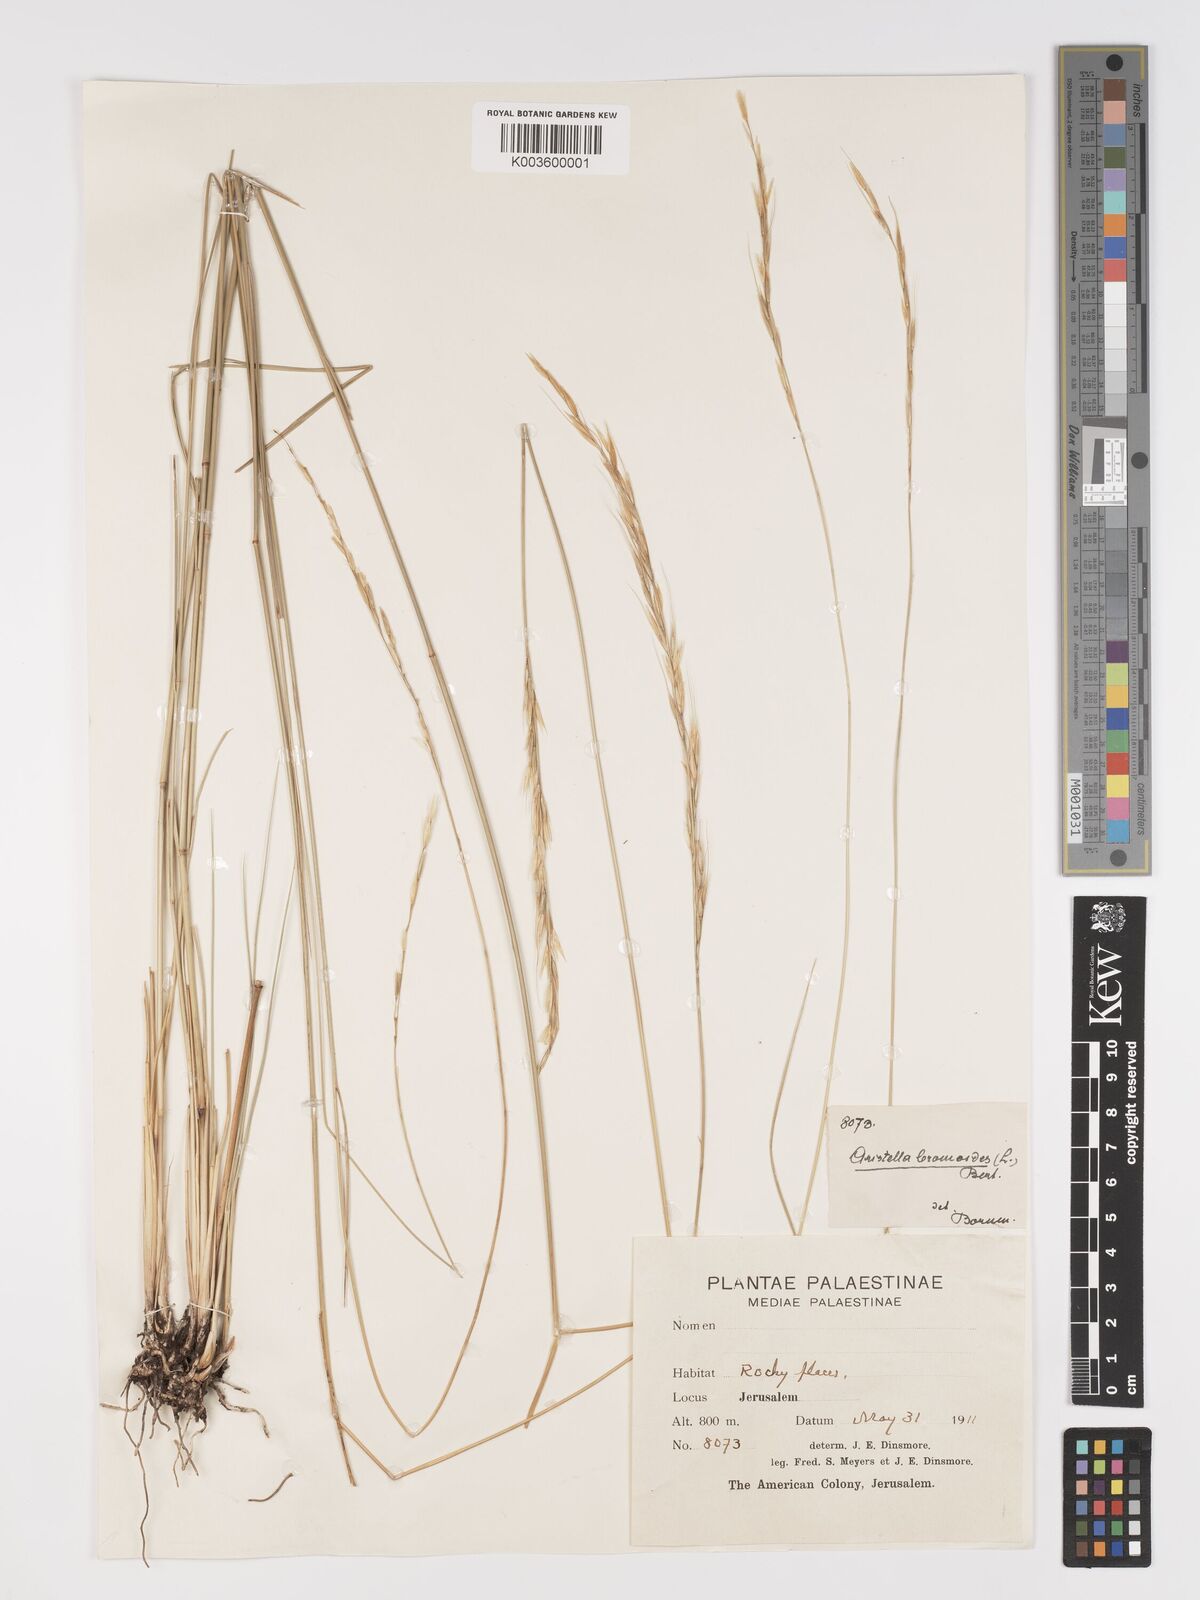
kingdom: Plantae
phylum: Tracheophyta
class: Liliopsida
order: Poales
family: Poaceae
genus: Achnatherum
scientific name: Achnatherum bromoides
